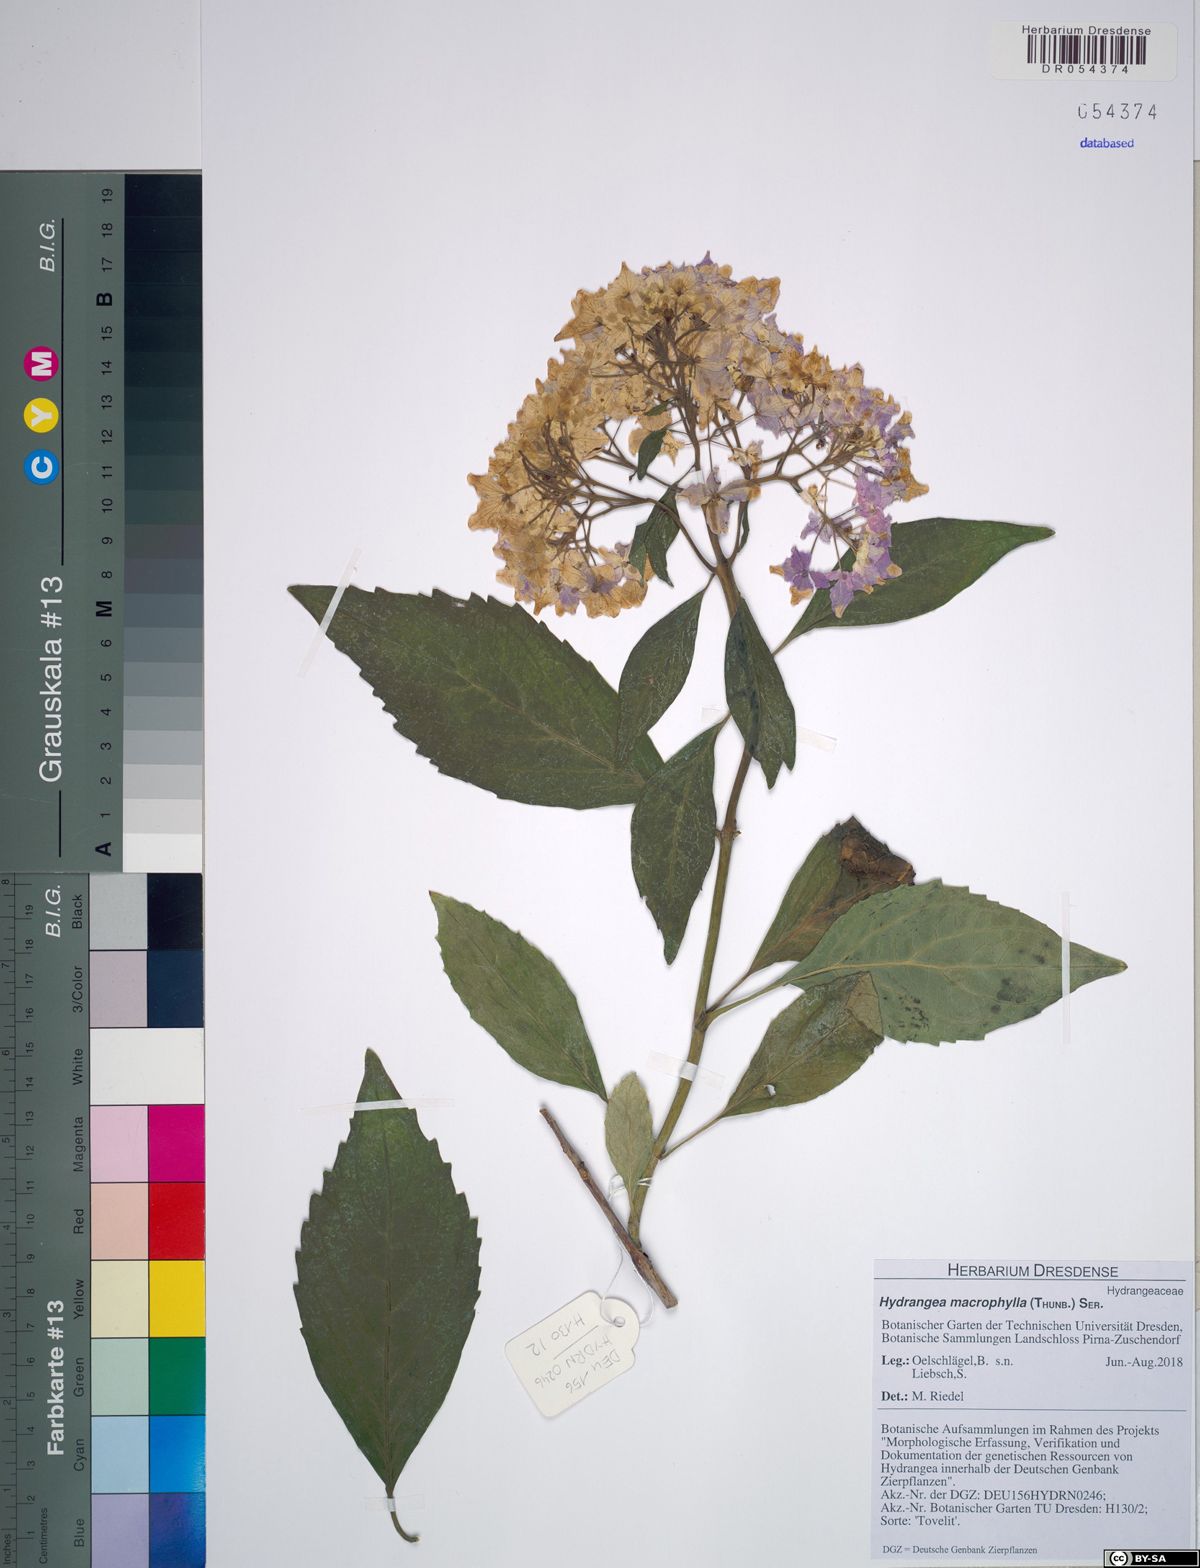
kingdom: Plantae
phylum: Tracheophyta
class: Magnoliopsida
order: Cornales
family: Hydrangeaceae
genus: Hydrangea
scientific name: Hydrangea macrophylla
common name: Hydrangea
